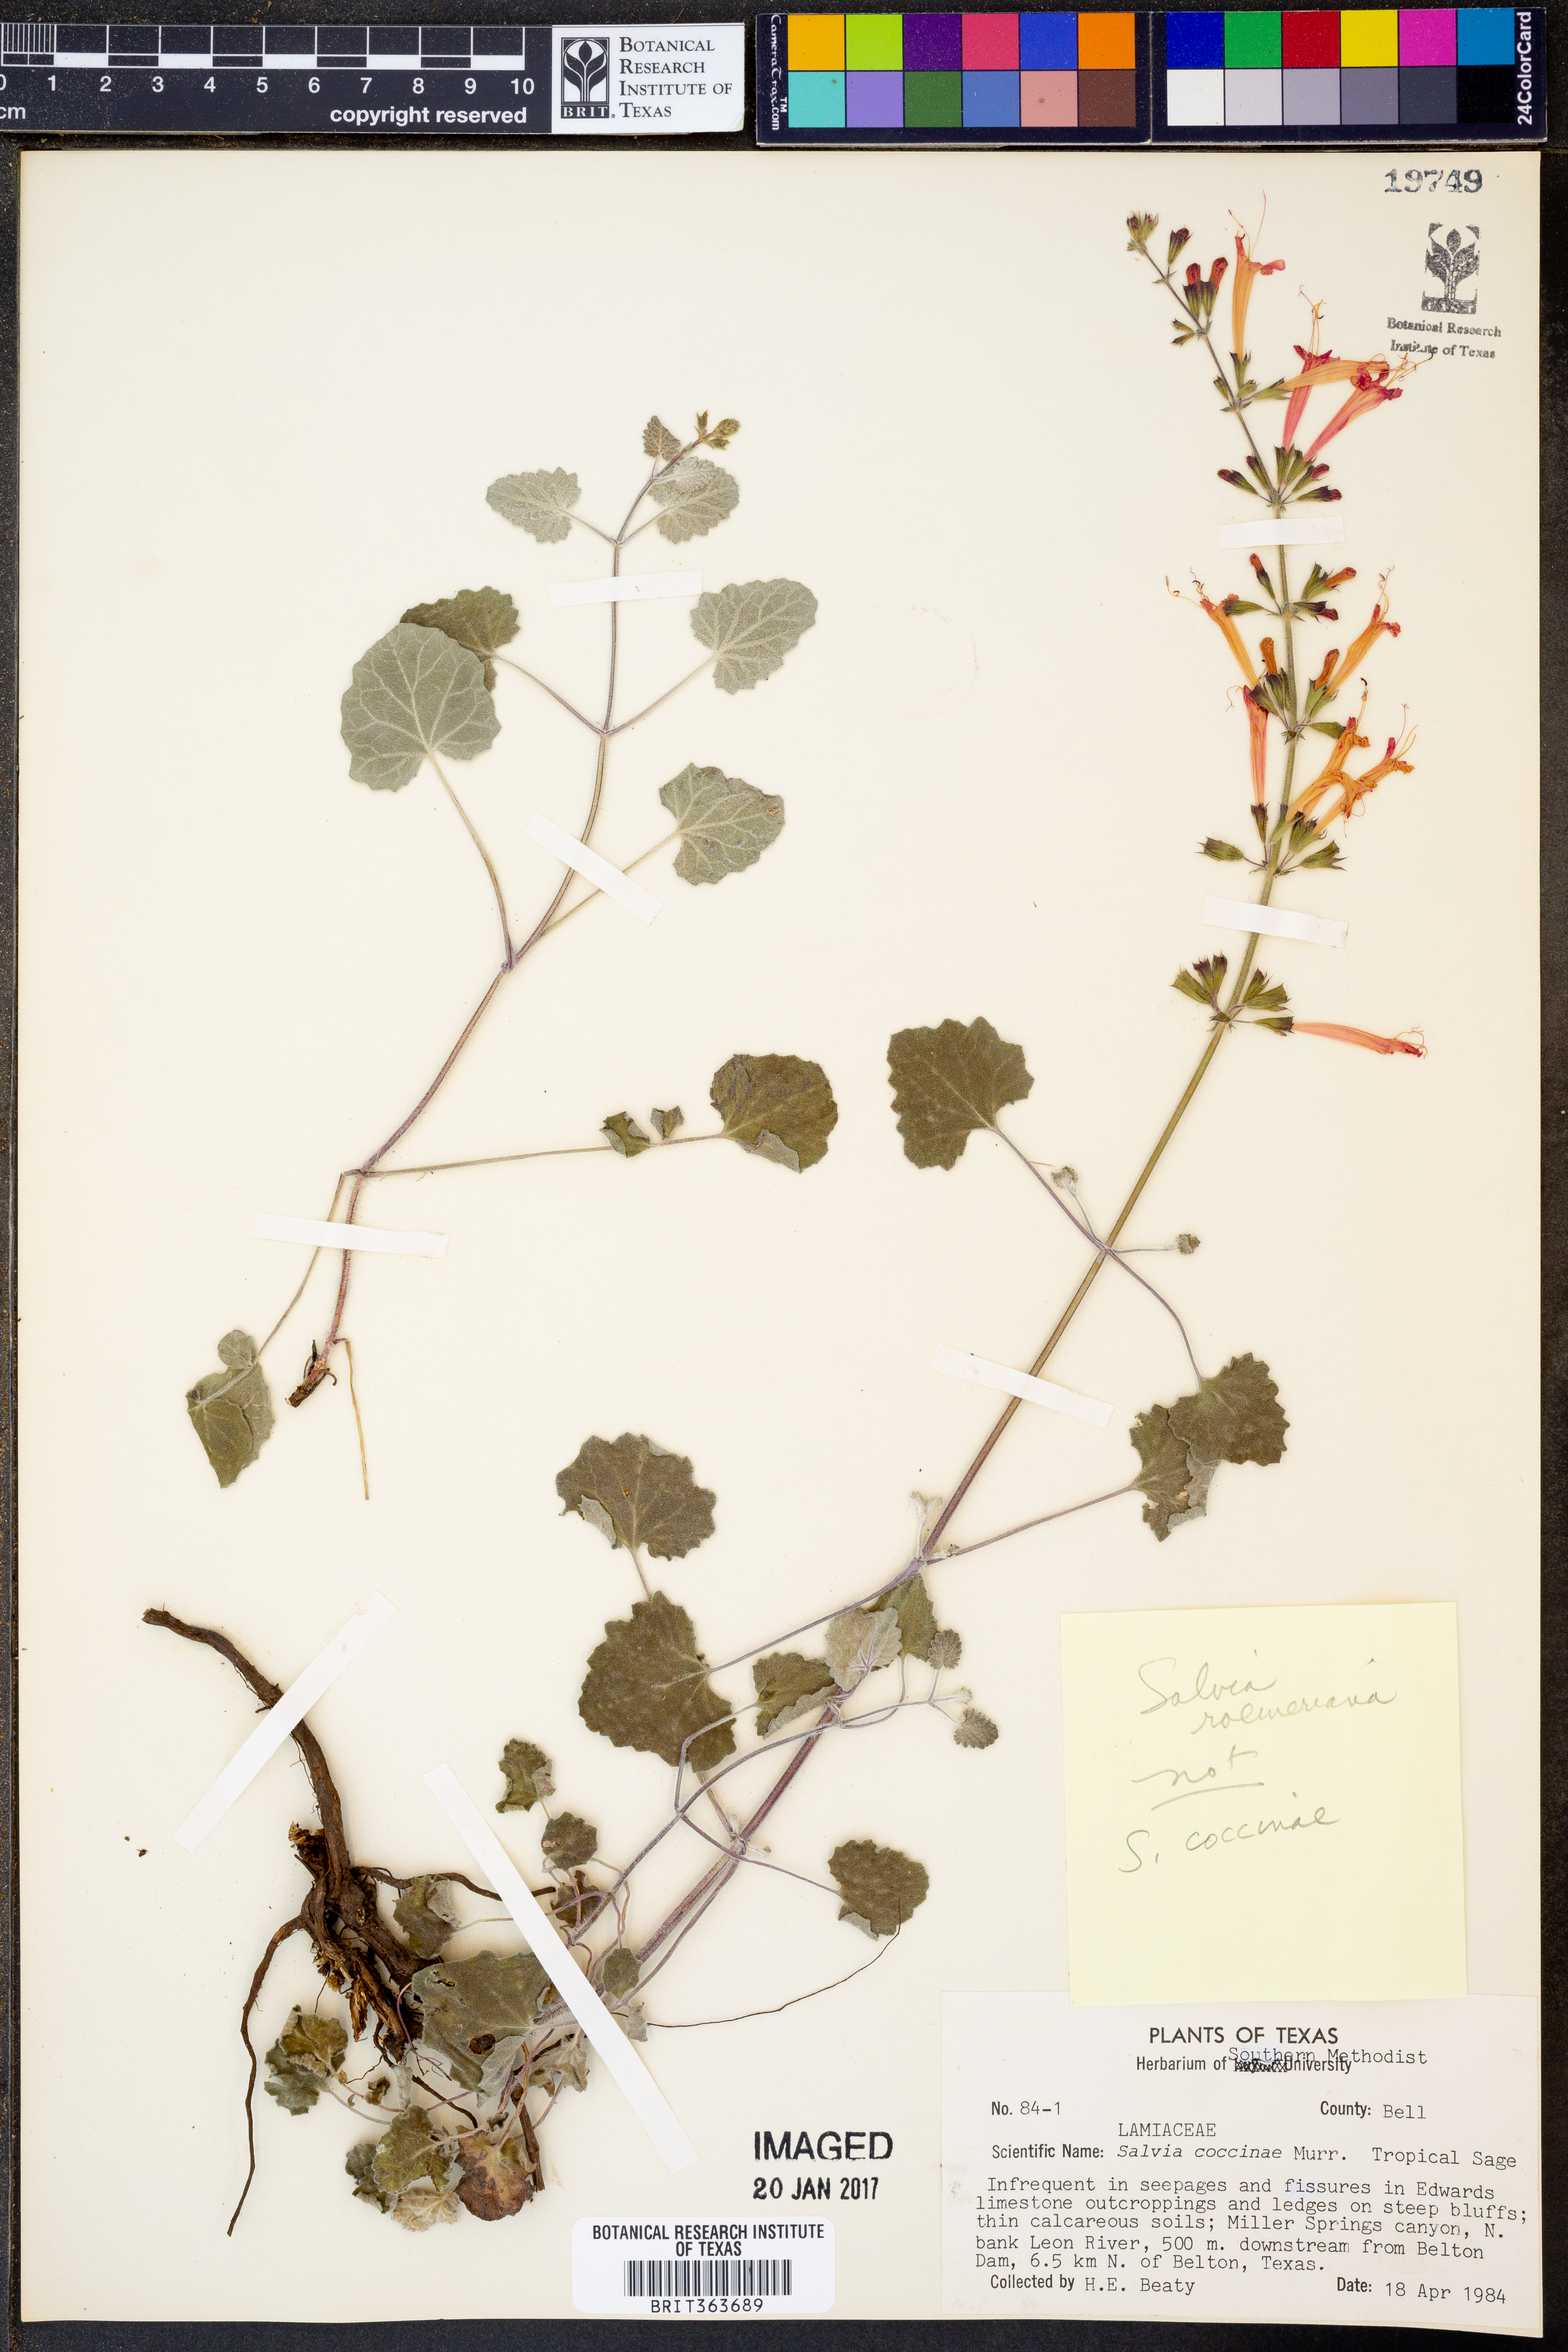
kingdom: Plantae
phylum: Tracheophyta
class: Magnoliopsida
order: Lamiales
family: Lamiaceae
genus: Salvia
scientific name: Salvia roemeriana
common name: Cedar sage
